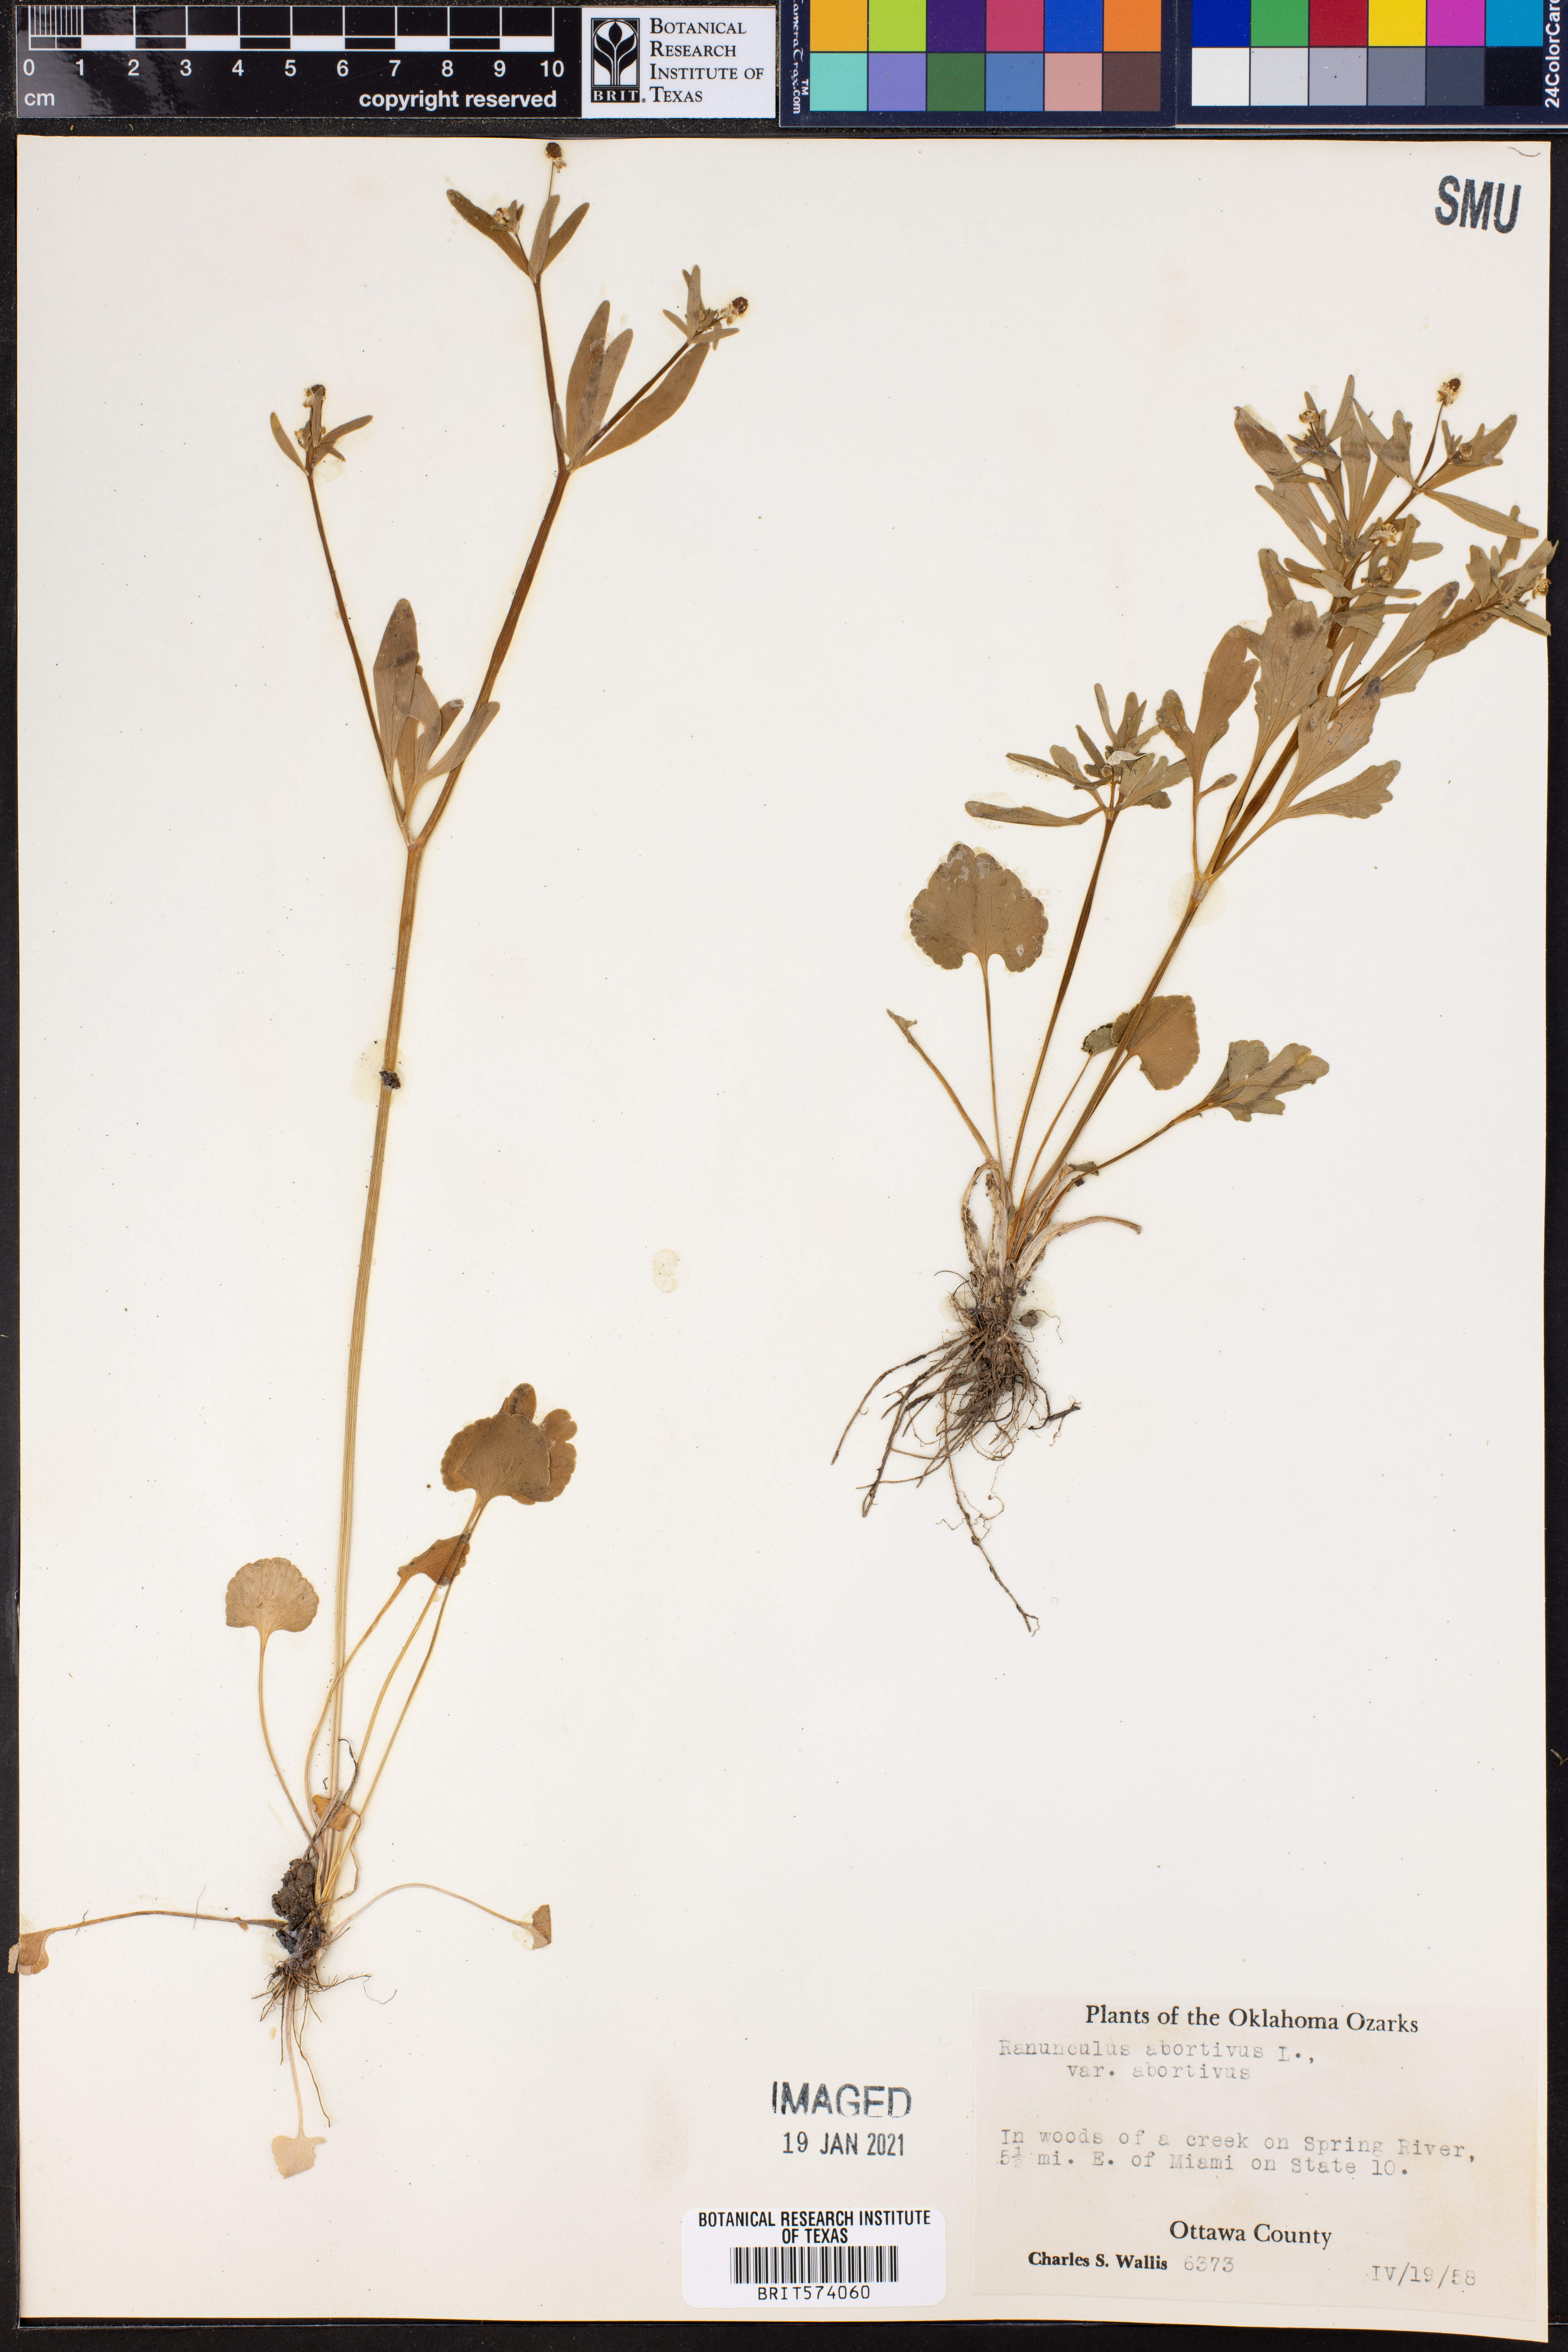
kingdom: Plantae
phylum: Tracheophyta
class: Magnoliopsida
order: Ranunculales
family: Ranunculaceae
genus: Ranunculus
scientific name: Ranunculus abortivus
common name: Early wood buttercup
